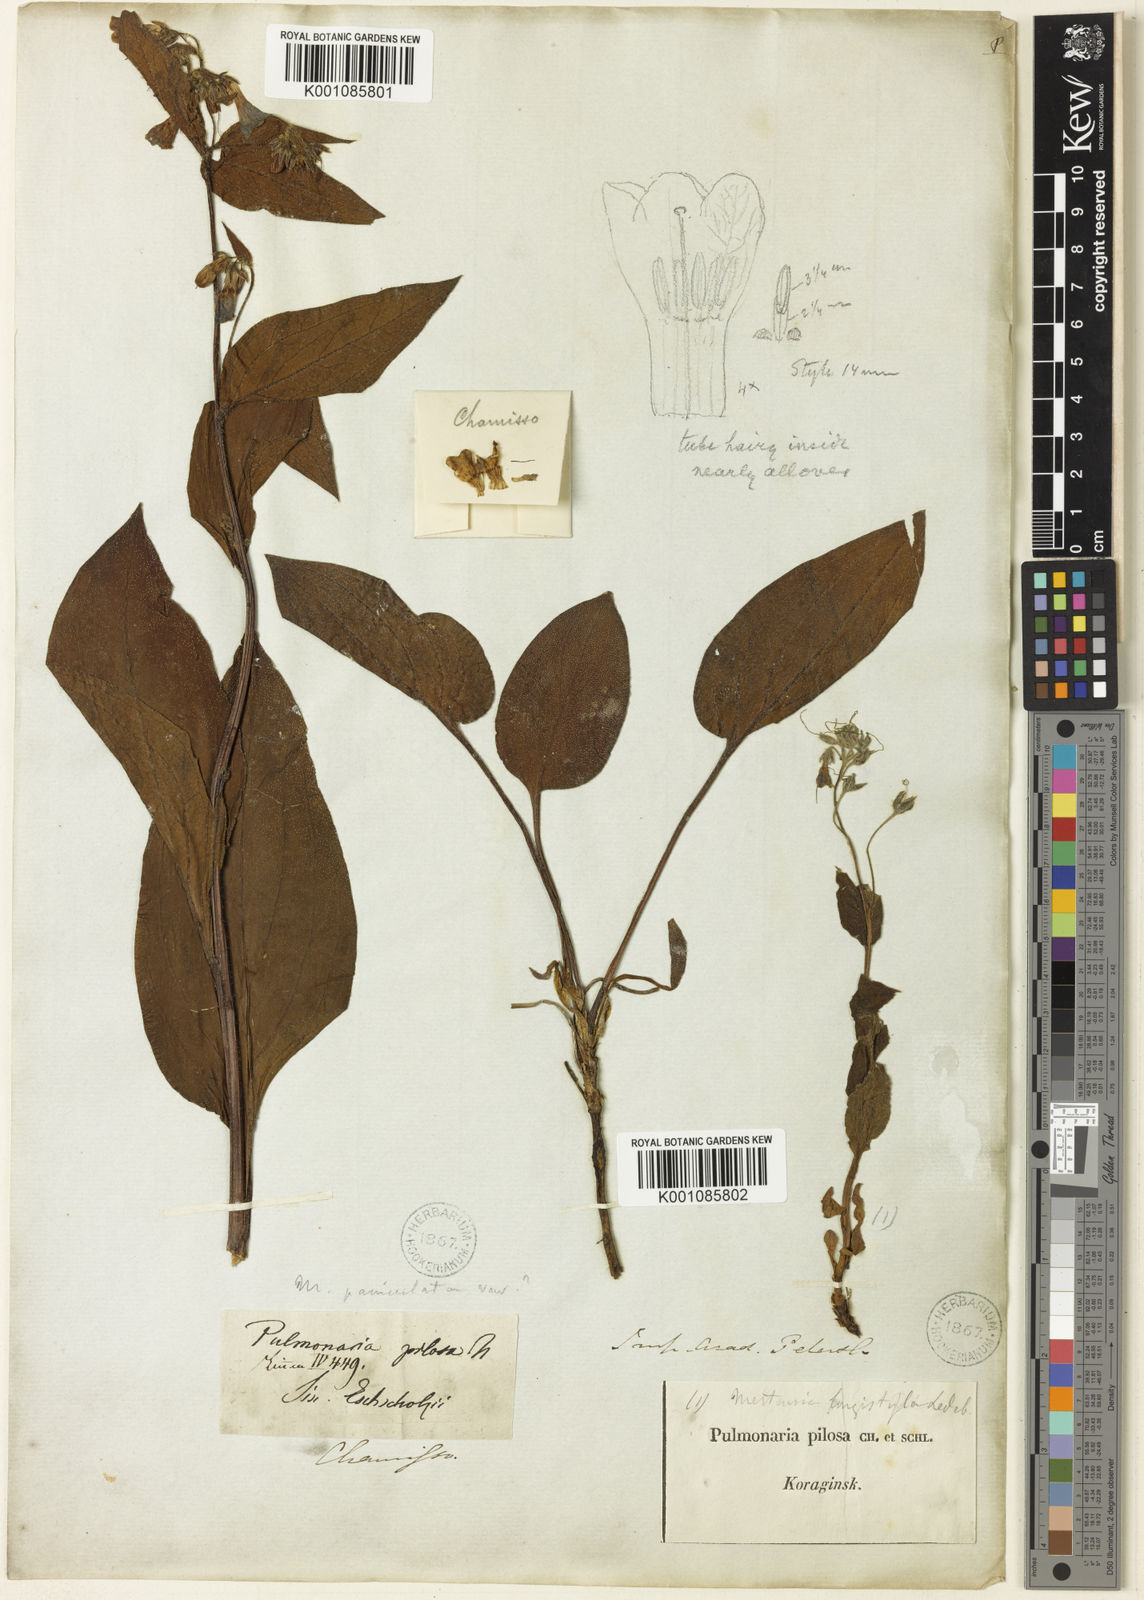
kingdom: Plantae
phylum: Tracheophyta
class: Magnoliopsida
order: Boraginales
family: Boraginaceae
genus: Mertensia
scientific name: Mertensia paniculata
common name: Panicled bluebells
